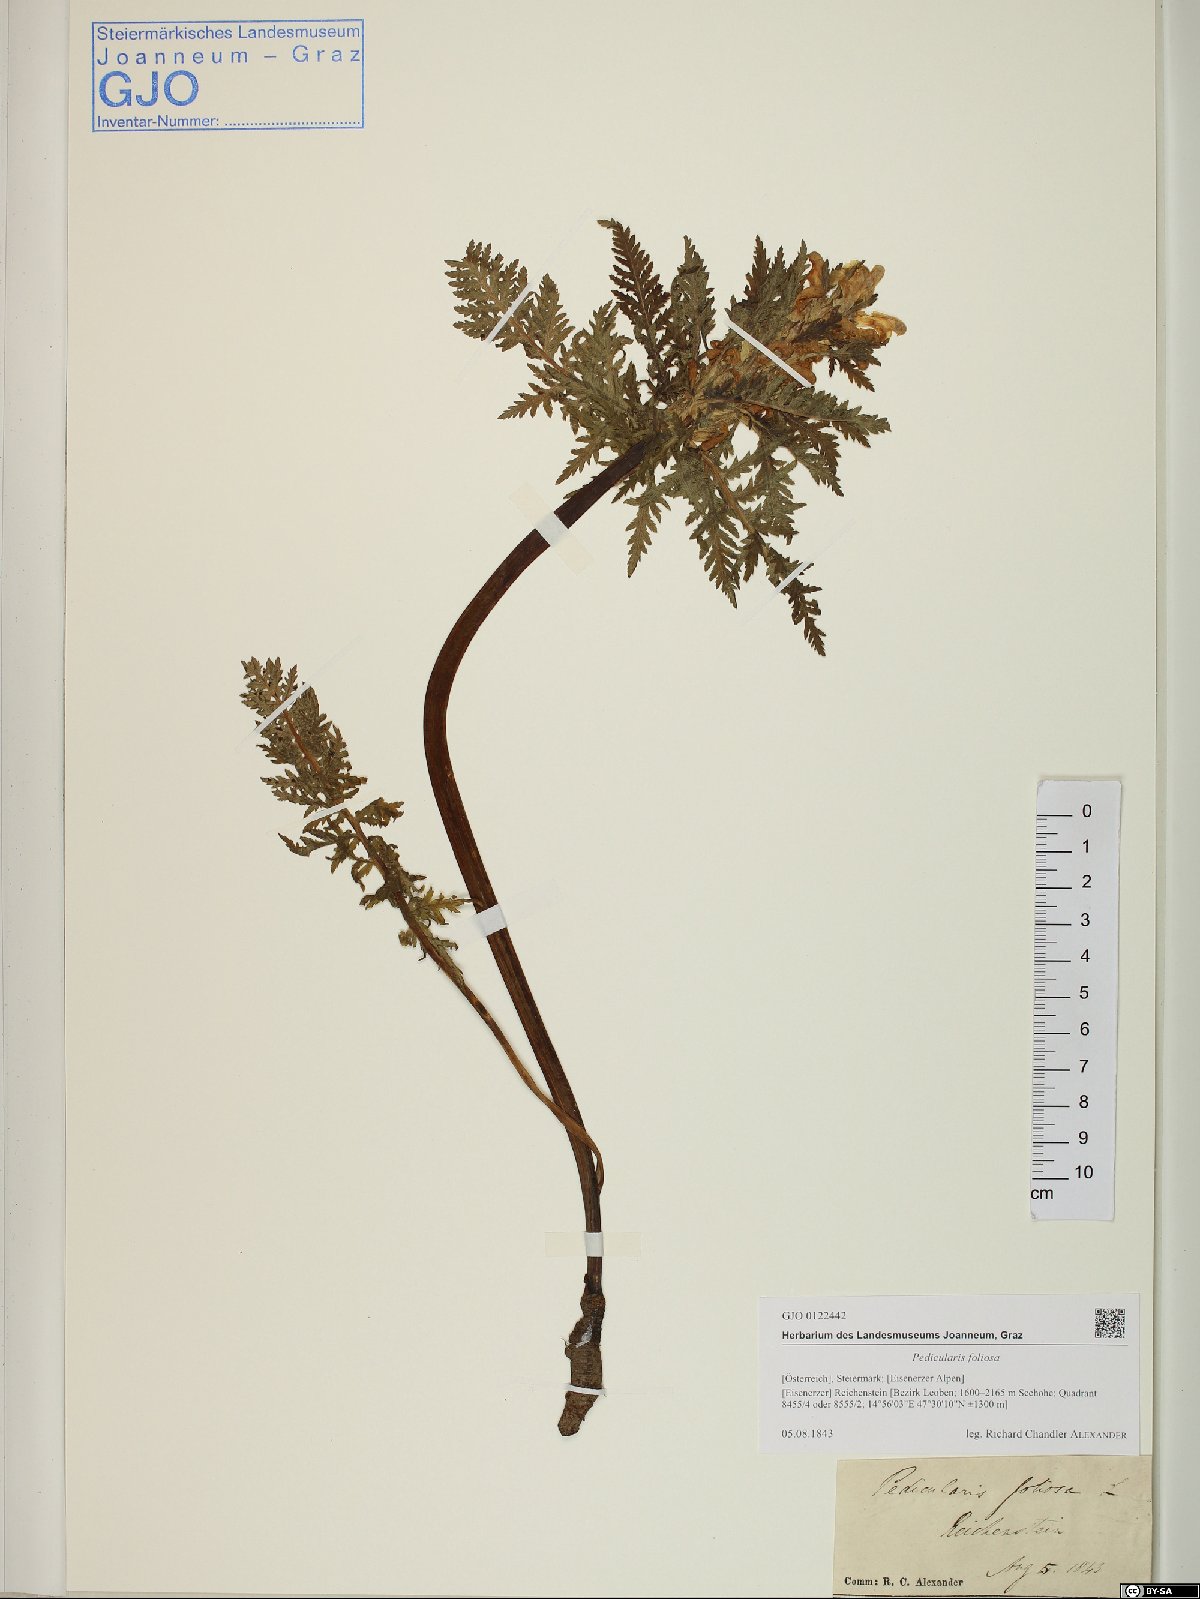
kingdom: Plantae
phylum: Tracheophyta
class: Magnoliopsida
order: Lamiales
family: Orobanchaceae
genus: Pedicularis
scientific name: Pedicularis foliosa
